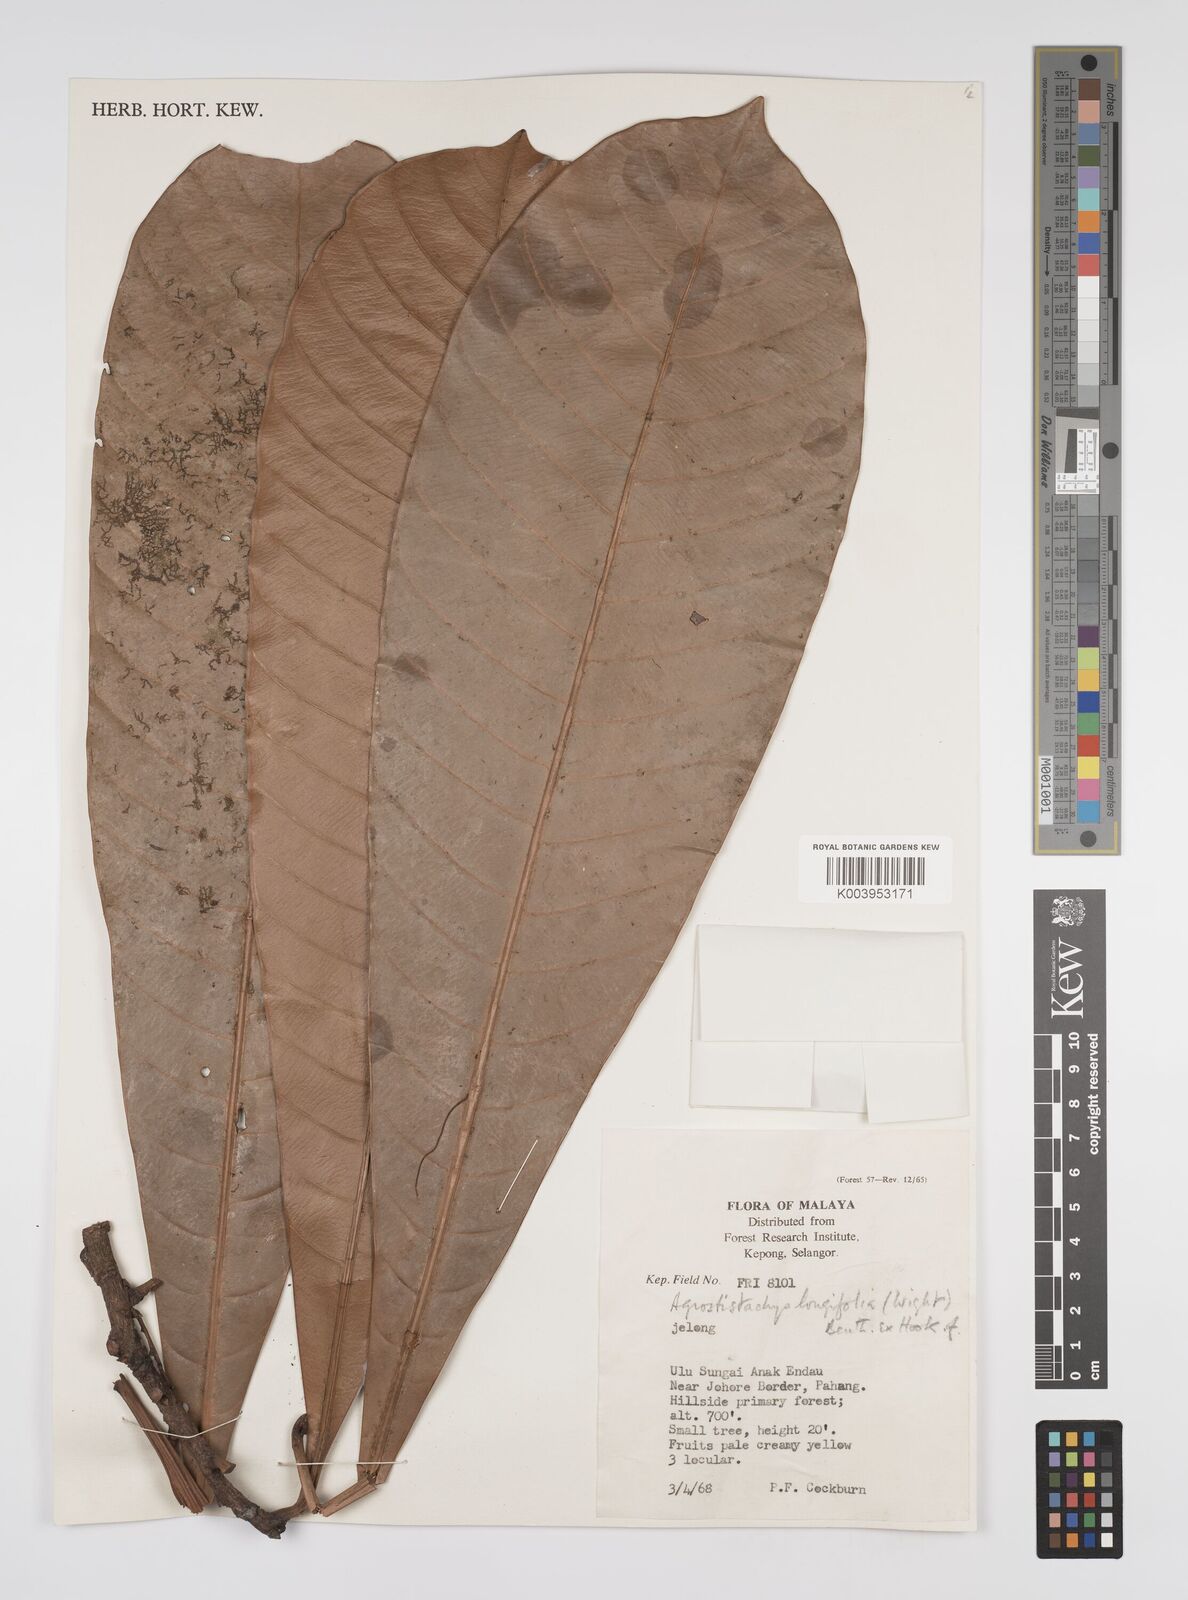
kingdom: Plantae
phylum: Tracheophyta
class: Magnoliopsida
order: Malpighiales
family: Euphorbiaceae
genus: Agrostistachys
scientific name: Agrostistachys borneensis
